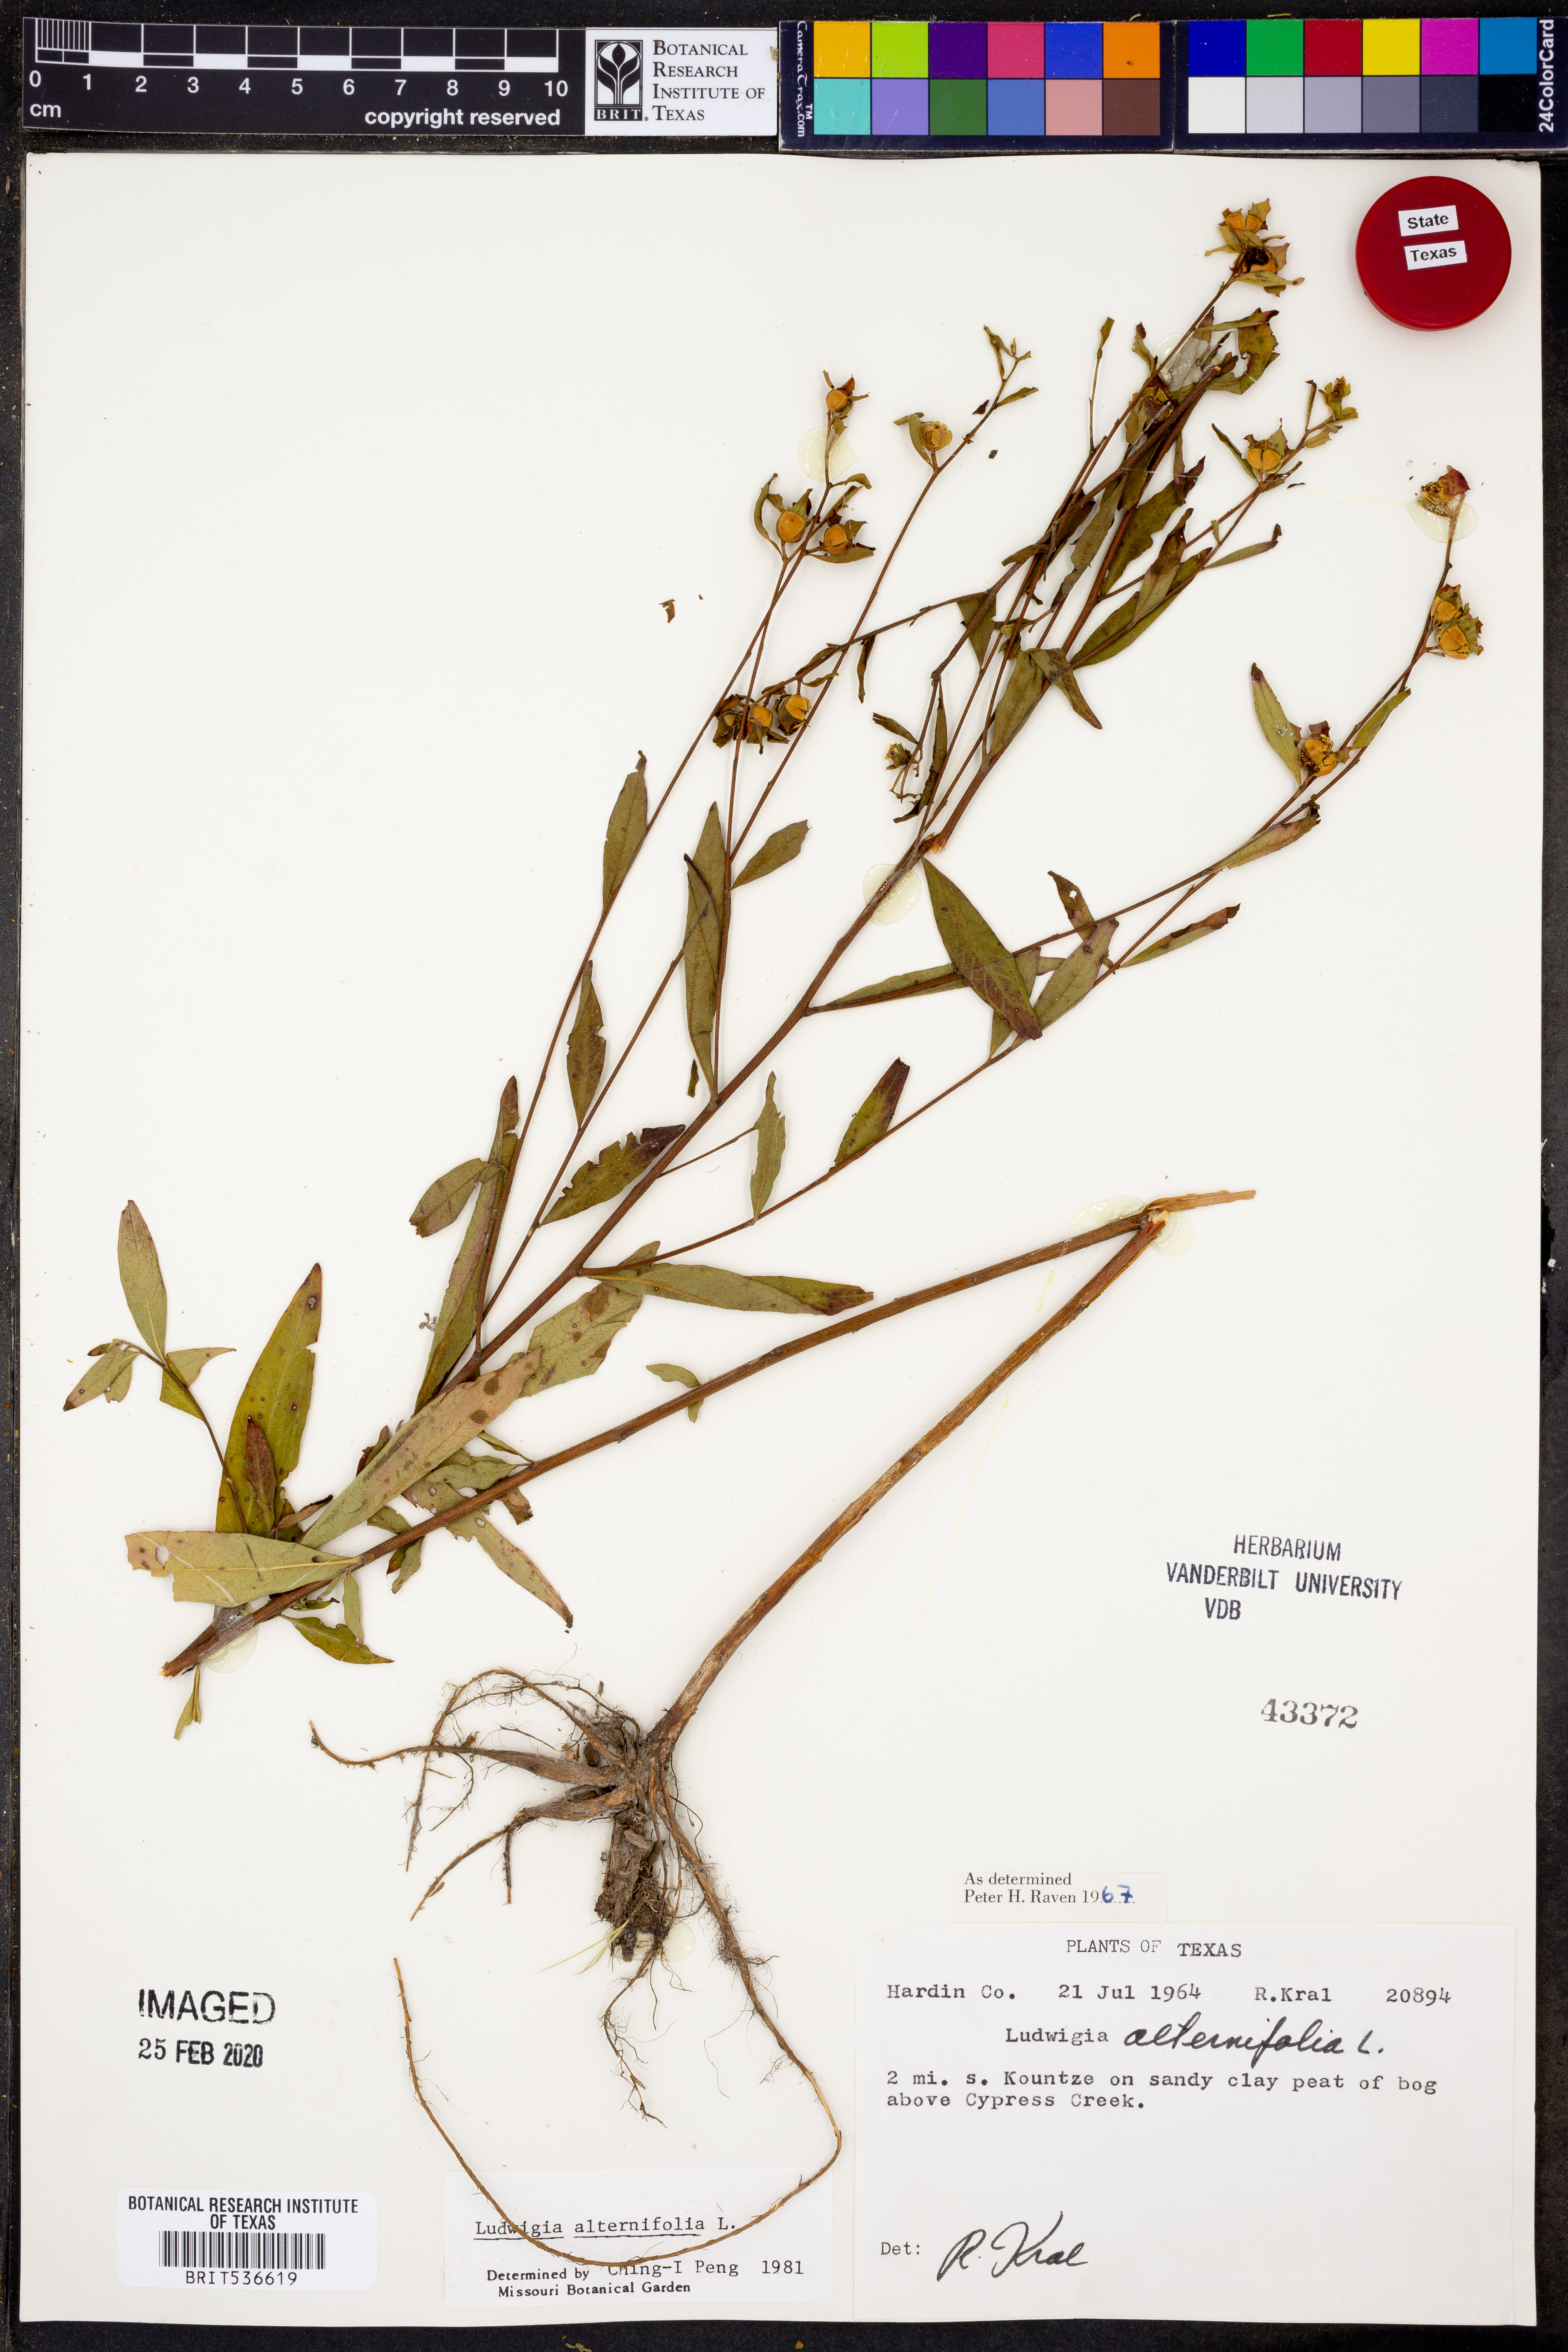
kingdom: Plantae
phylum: Tracheophyta
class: Magnoliopsida
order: Myrtales
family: Onagraceae
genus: Ludwigia
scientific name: Ludwigia alternifolia
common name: Rattlebox
